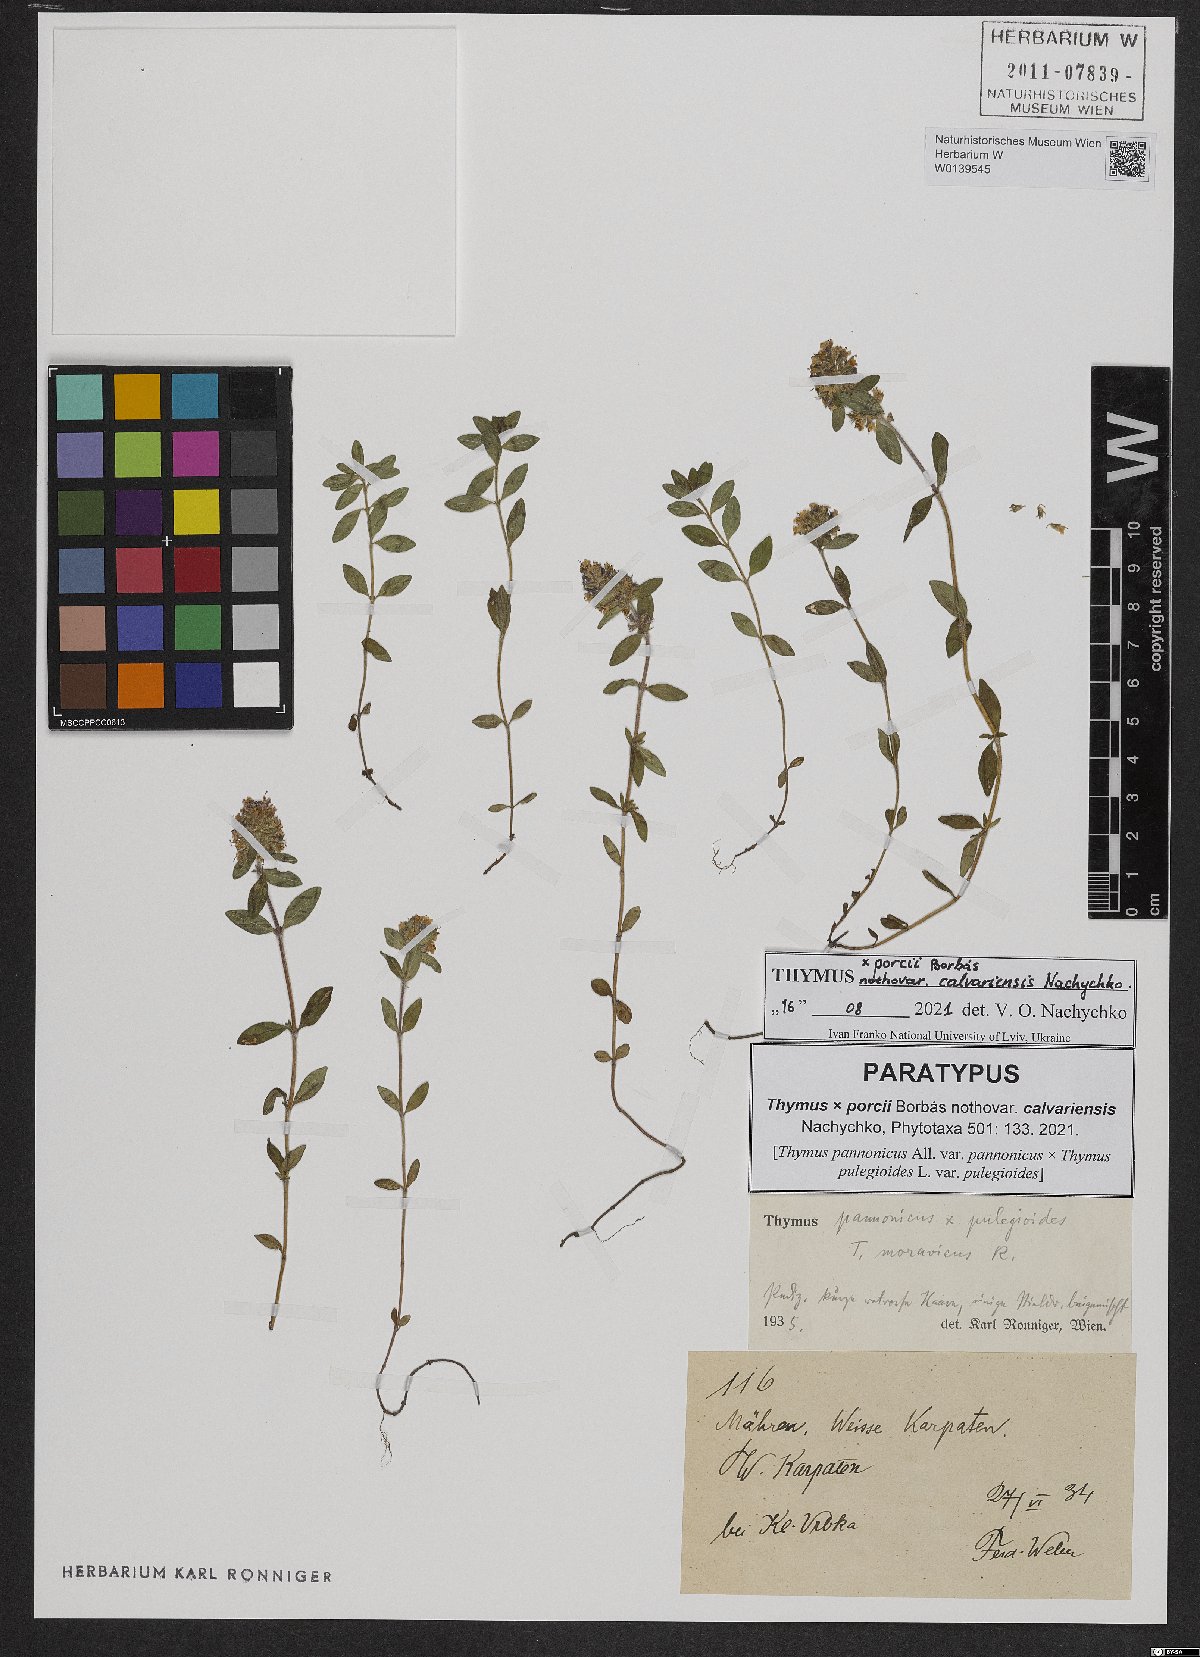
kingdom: Plantae
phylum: Tracheophyta
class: Magnoliopsida
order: Lamiales
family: Lamiaceae
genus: Thymus
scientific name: Thymus porcii
